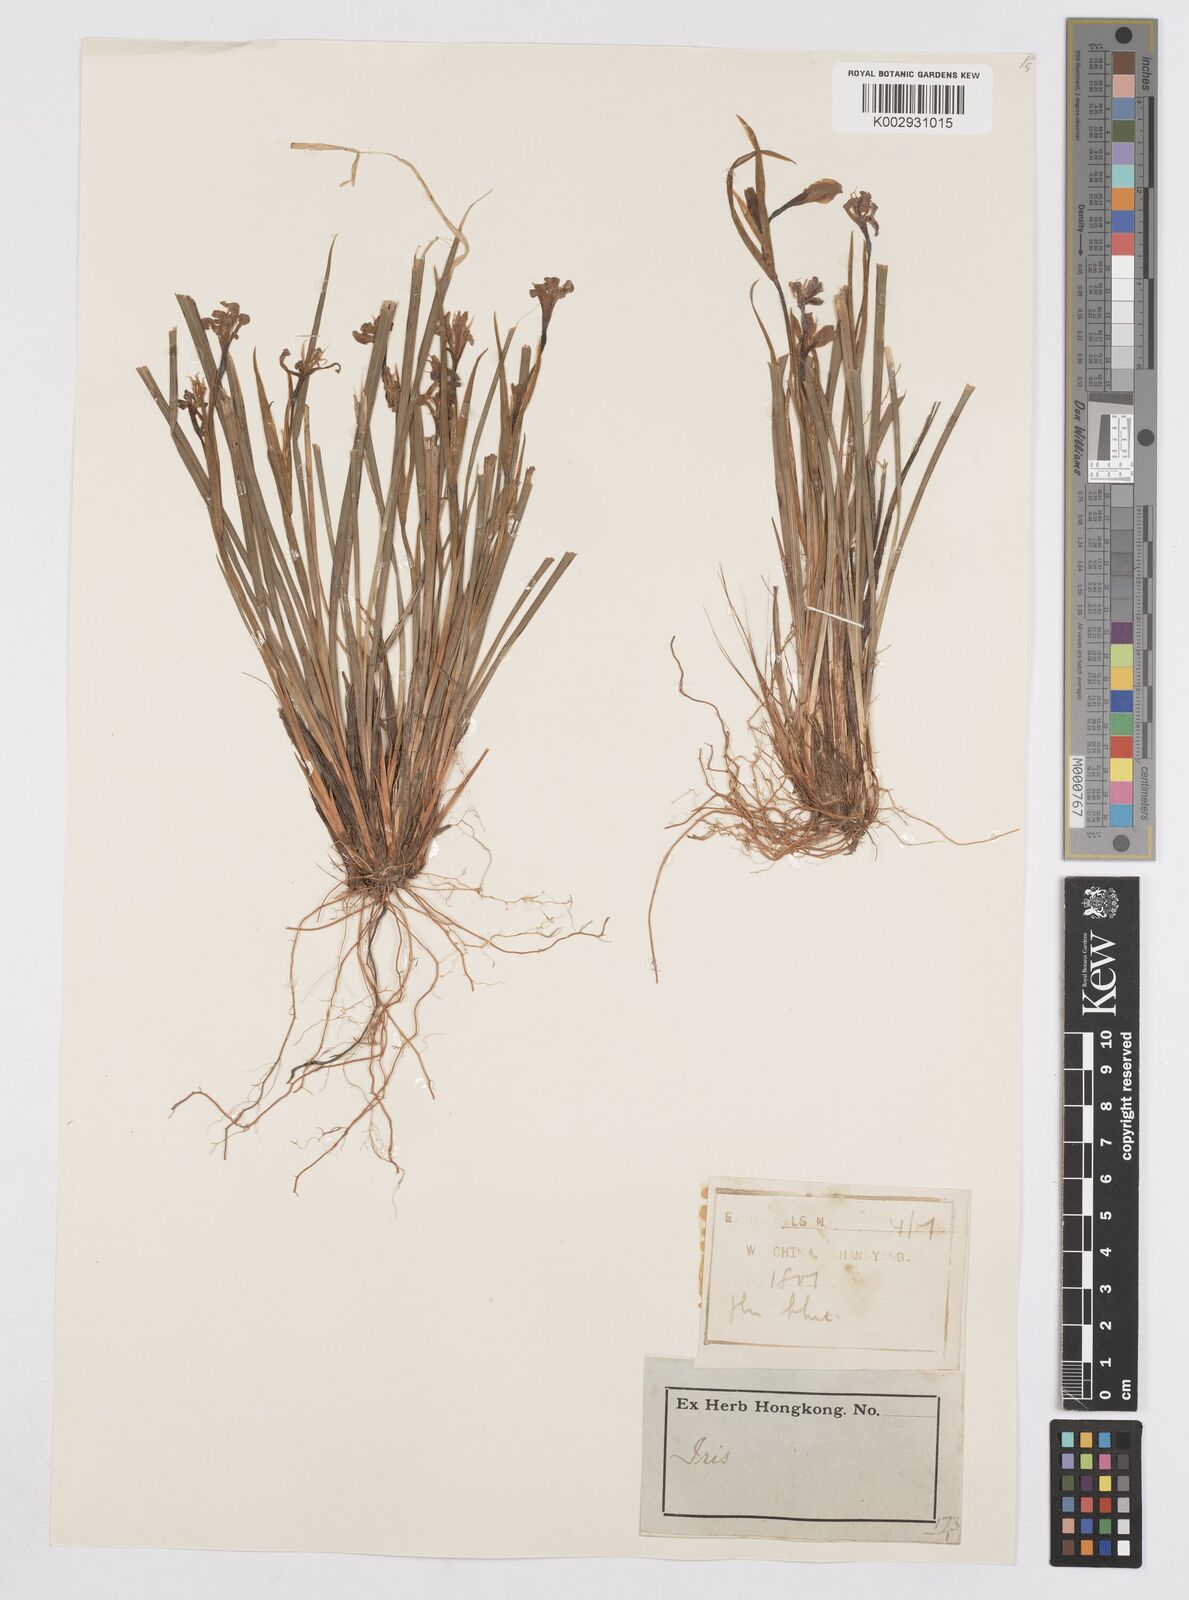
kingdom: Plantae
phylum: Tracheophyta
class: Liliopsida
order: Asparagales
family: Iridaceae
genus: Iris
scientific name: Iris
